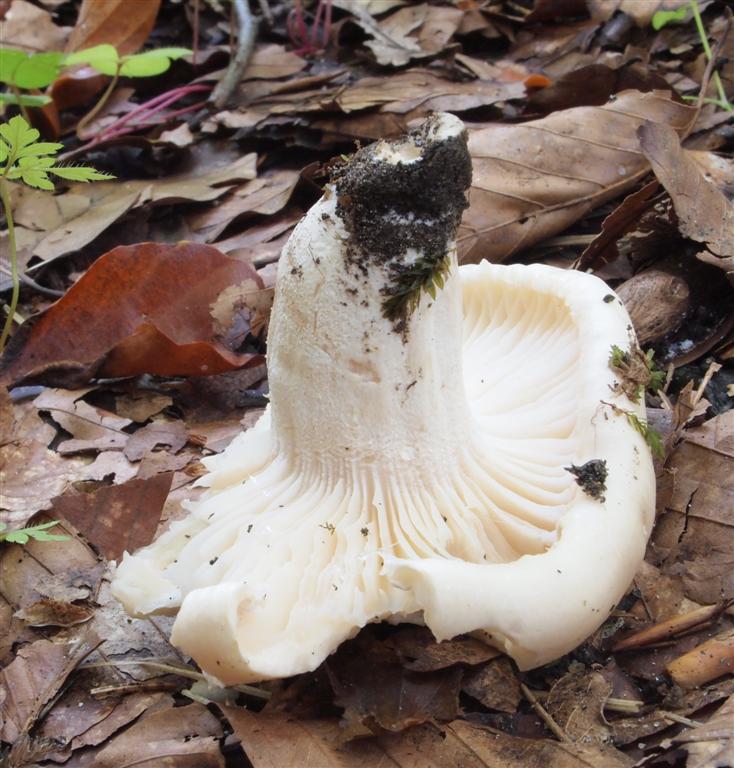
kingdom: Fungi
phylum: Basidiomycota
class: Agaricomycetes
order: Agaricales
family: Hygrophoraceae
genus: Hygrophorus
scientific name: Hygrophorus penarius
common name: spiselig sneglehat
